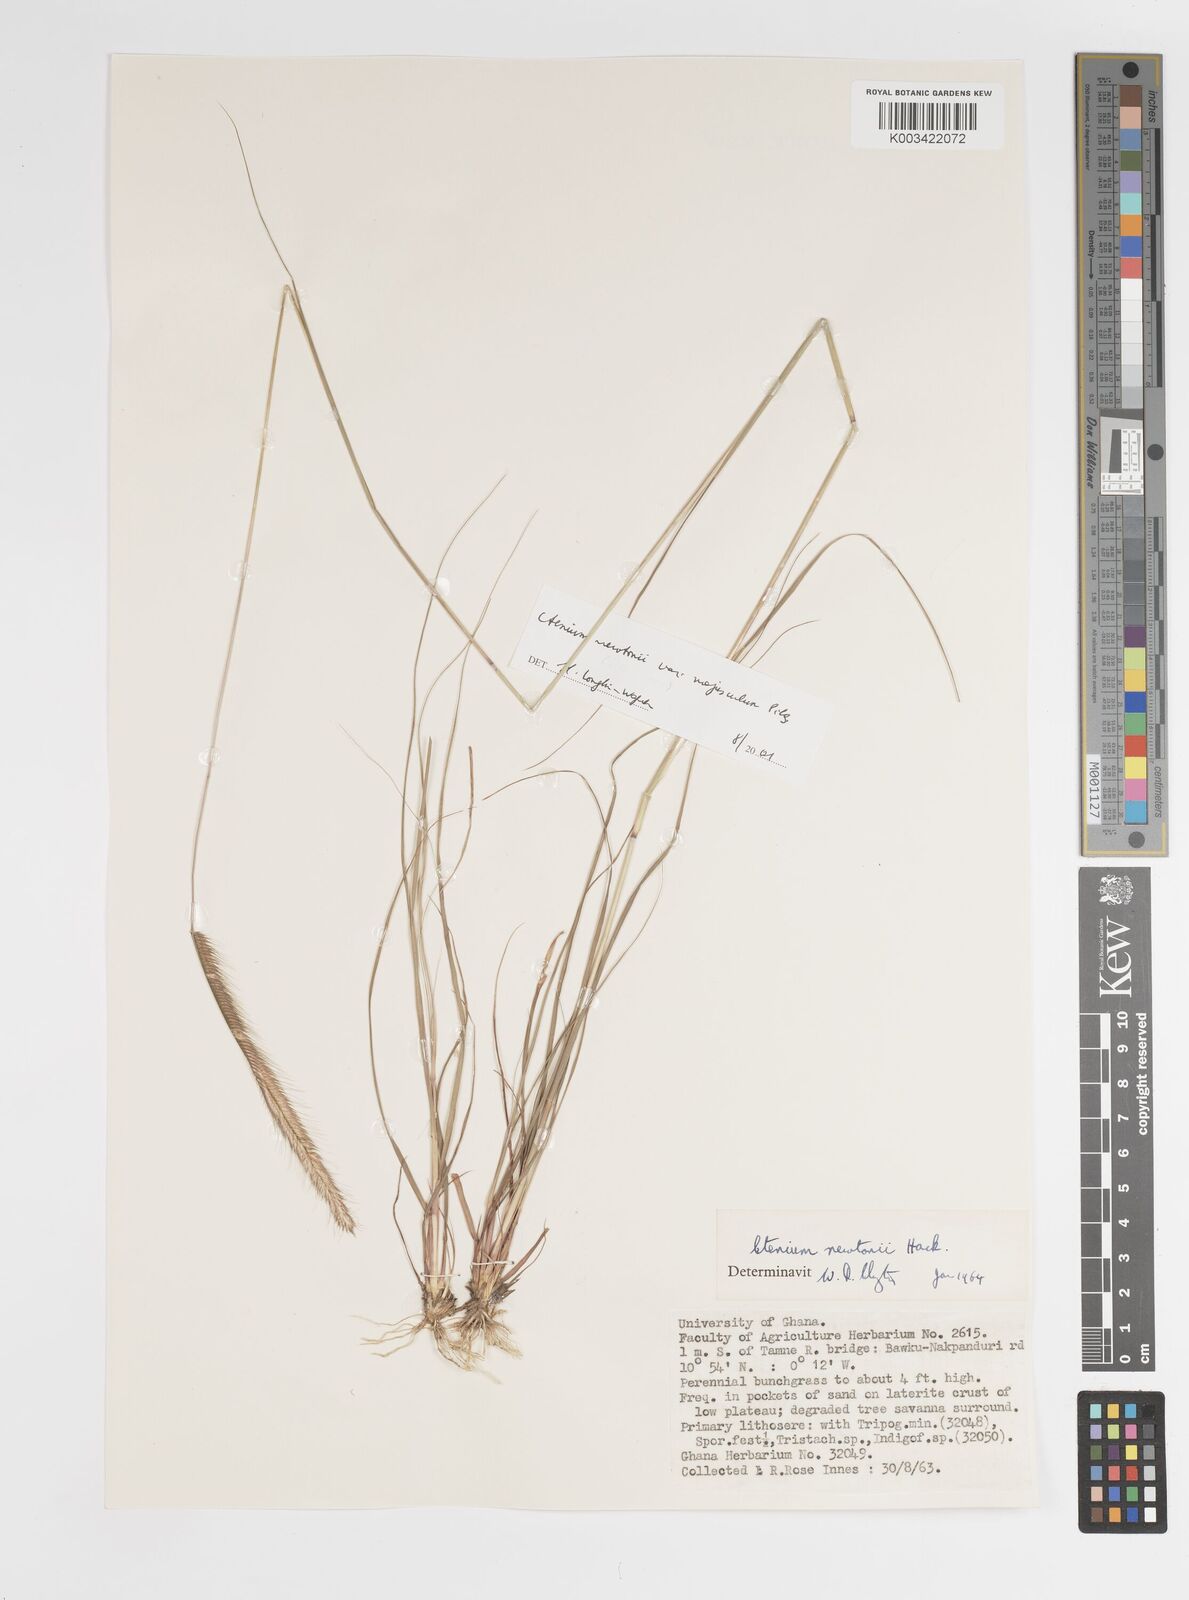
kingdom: Plantae
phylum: Tracheophyta
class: Liliopsida
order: Poales
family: Poaceae
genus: Ctenium
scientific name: Ctenium newtonii
